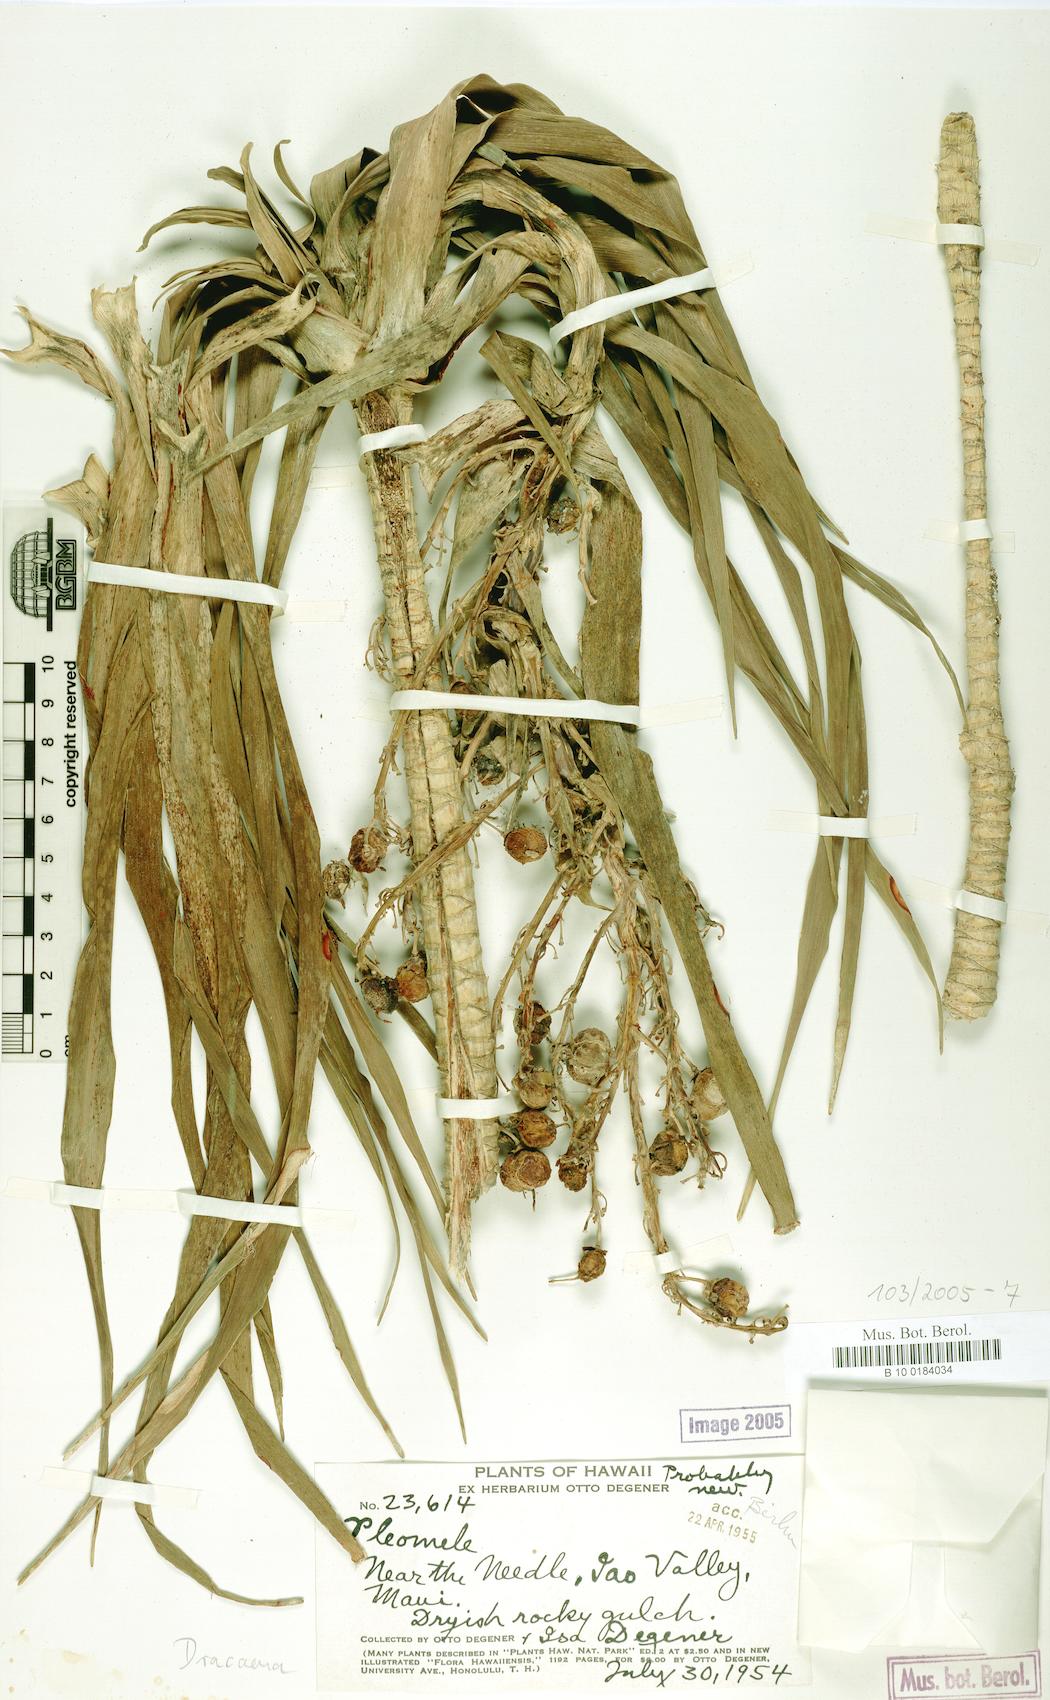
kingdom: Plantae
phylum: Tracheophyta
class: Liliopsida
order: Asparagales
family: Asparagaceae
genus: Dracaena
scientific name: Dracaena
